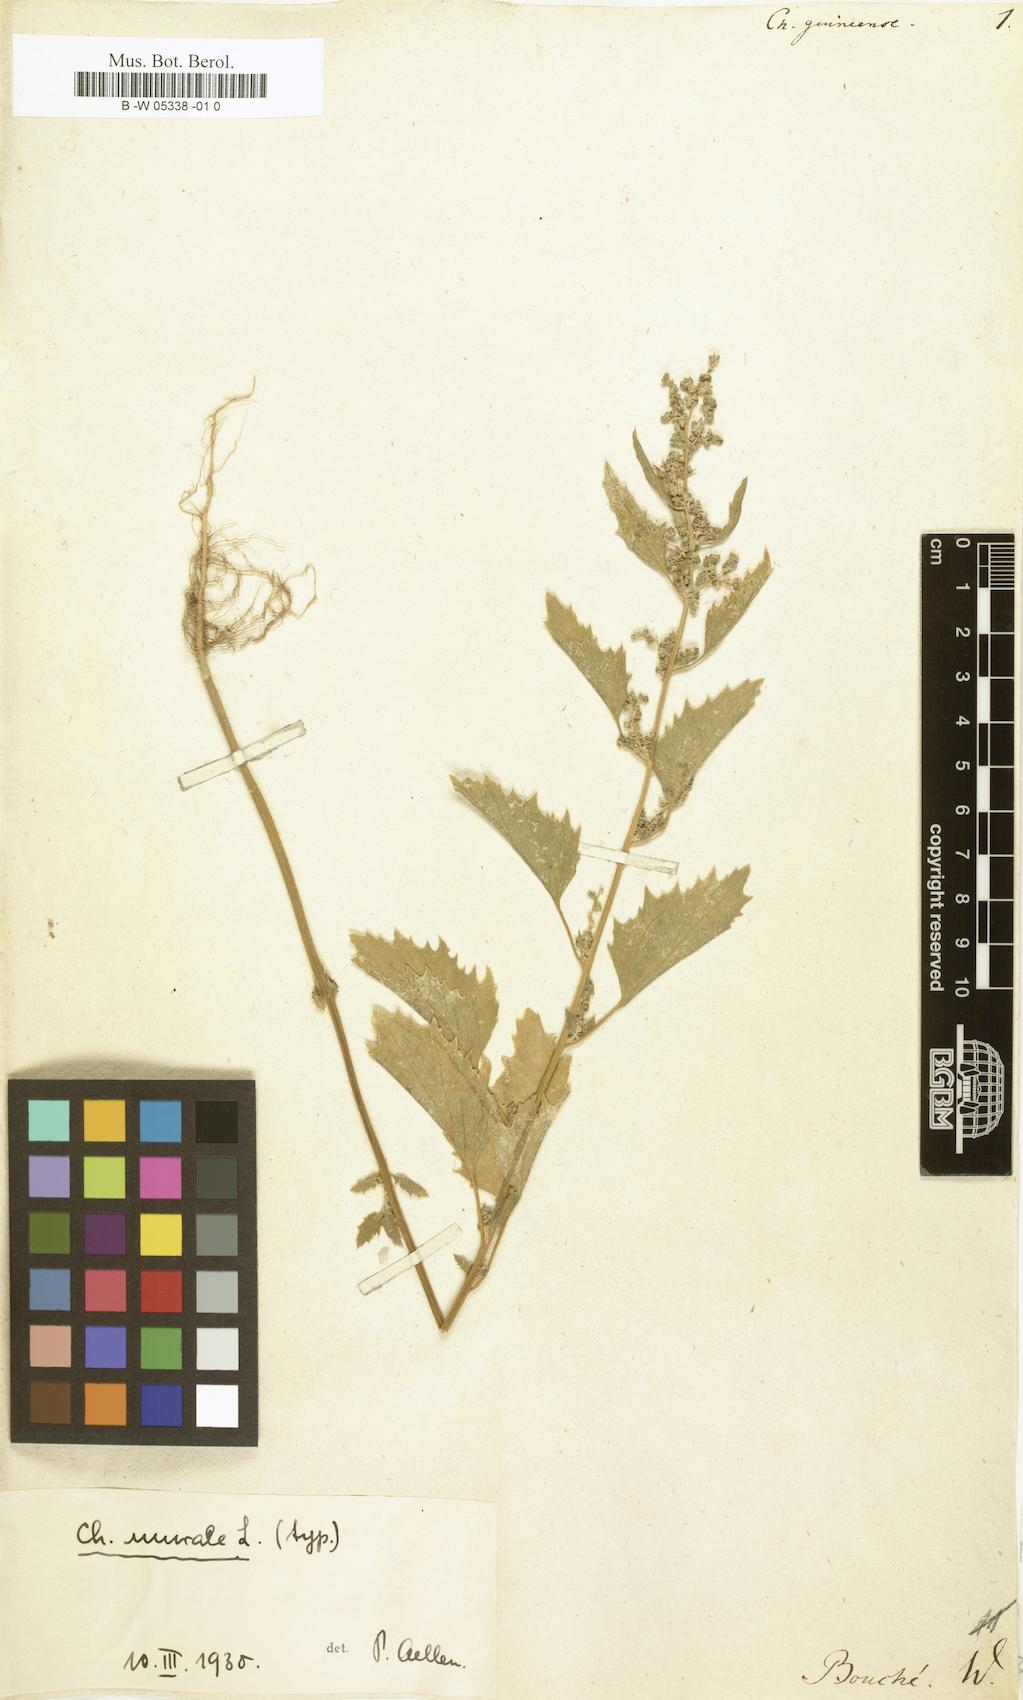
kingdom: Plantae
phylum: Tracheophyta
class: Magnoliopsida
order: Caryophyllales
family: Amaranthaceae
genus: Chenopodiastrum
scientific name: Chenopodiastrum murale
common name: Sowbane
